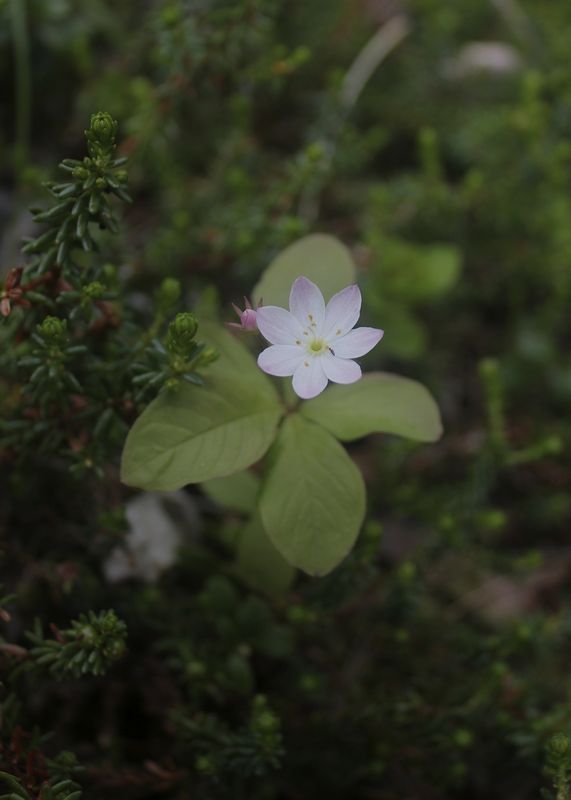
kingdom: Plantae
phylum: Tracheophyta
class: Magnoliopsida
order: Ericales
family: Primulaceae
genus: Lysimachia
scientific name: Lysimachia europaea
